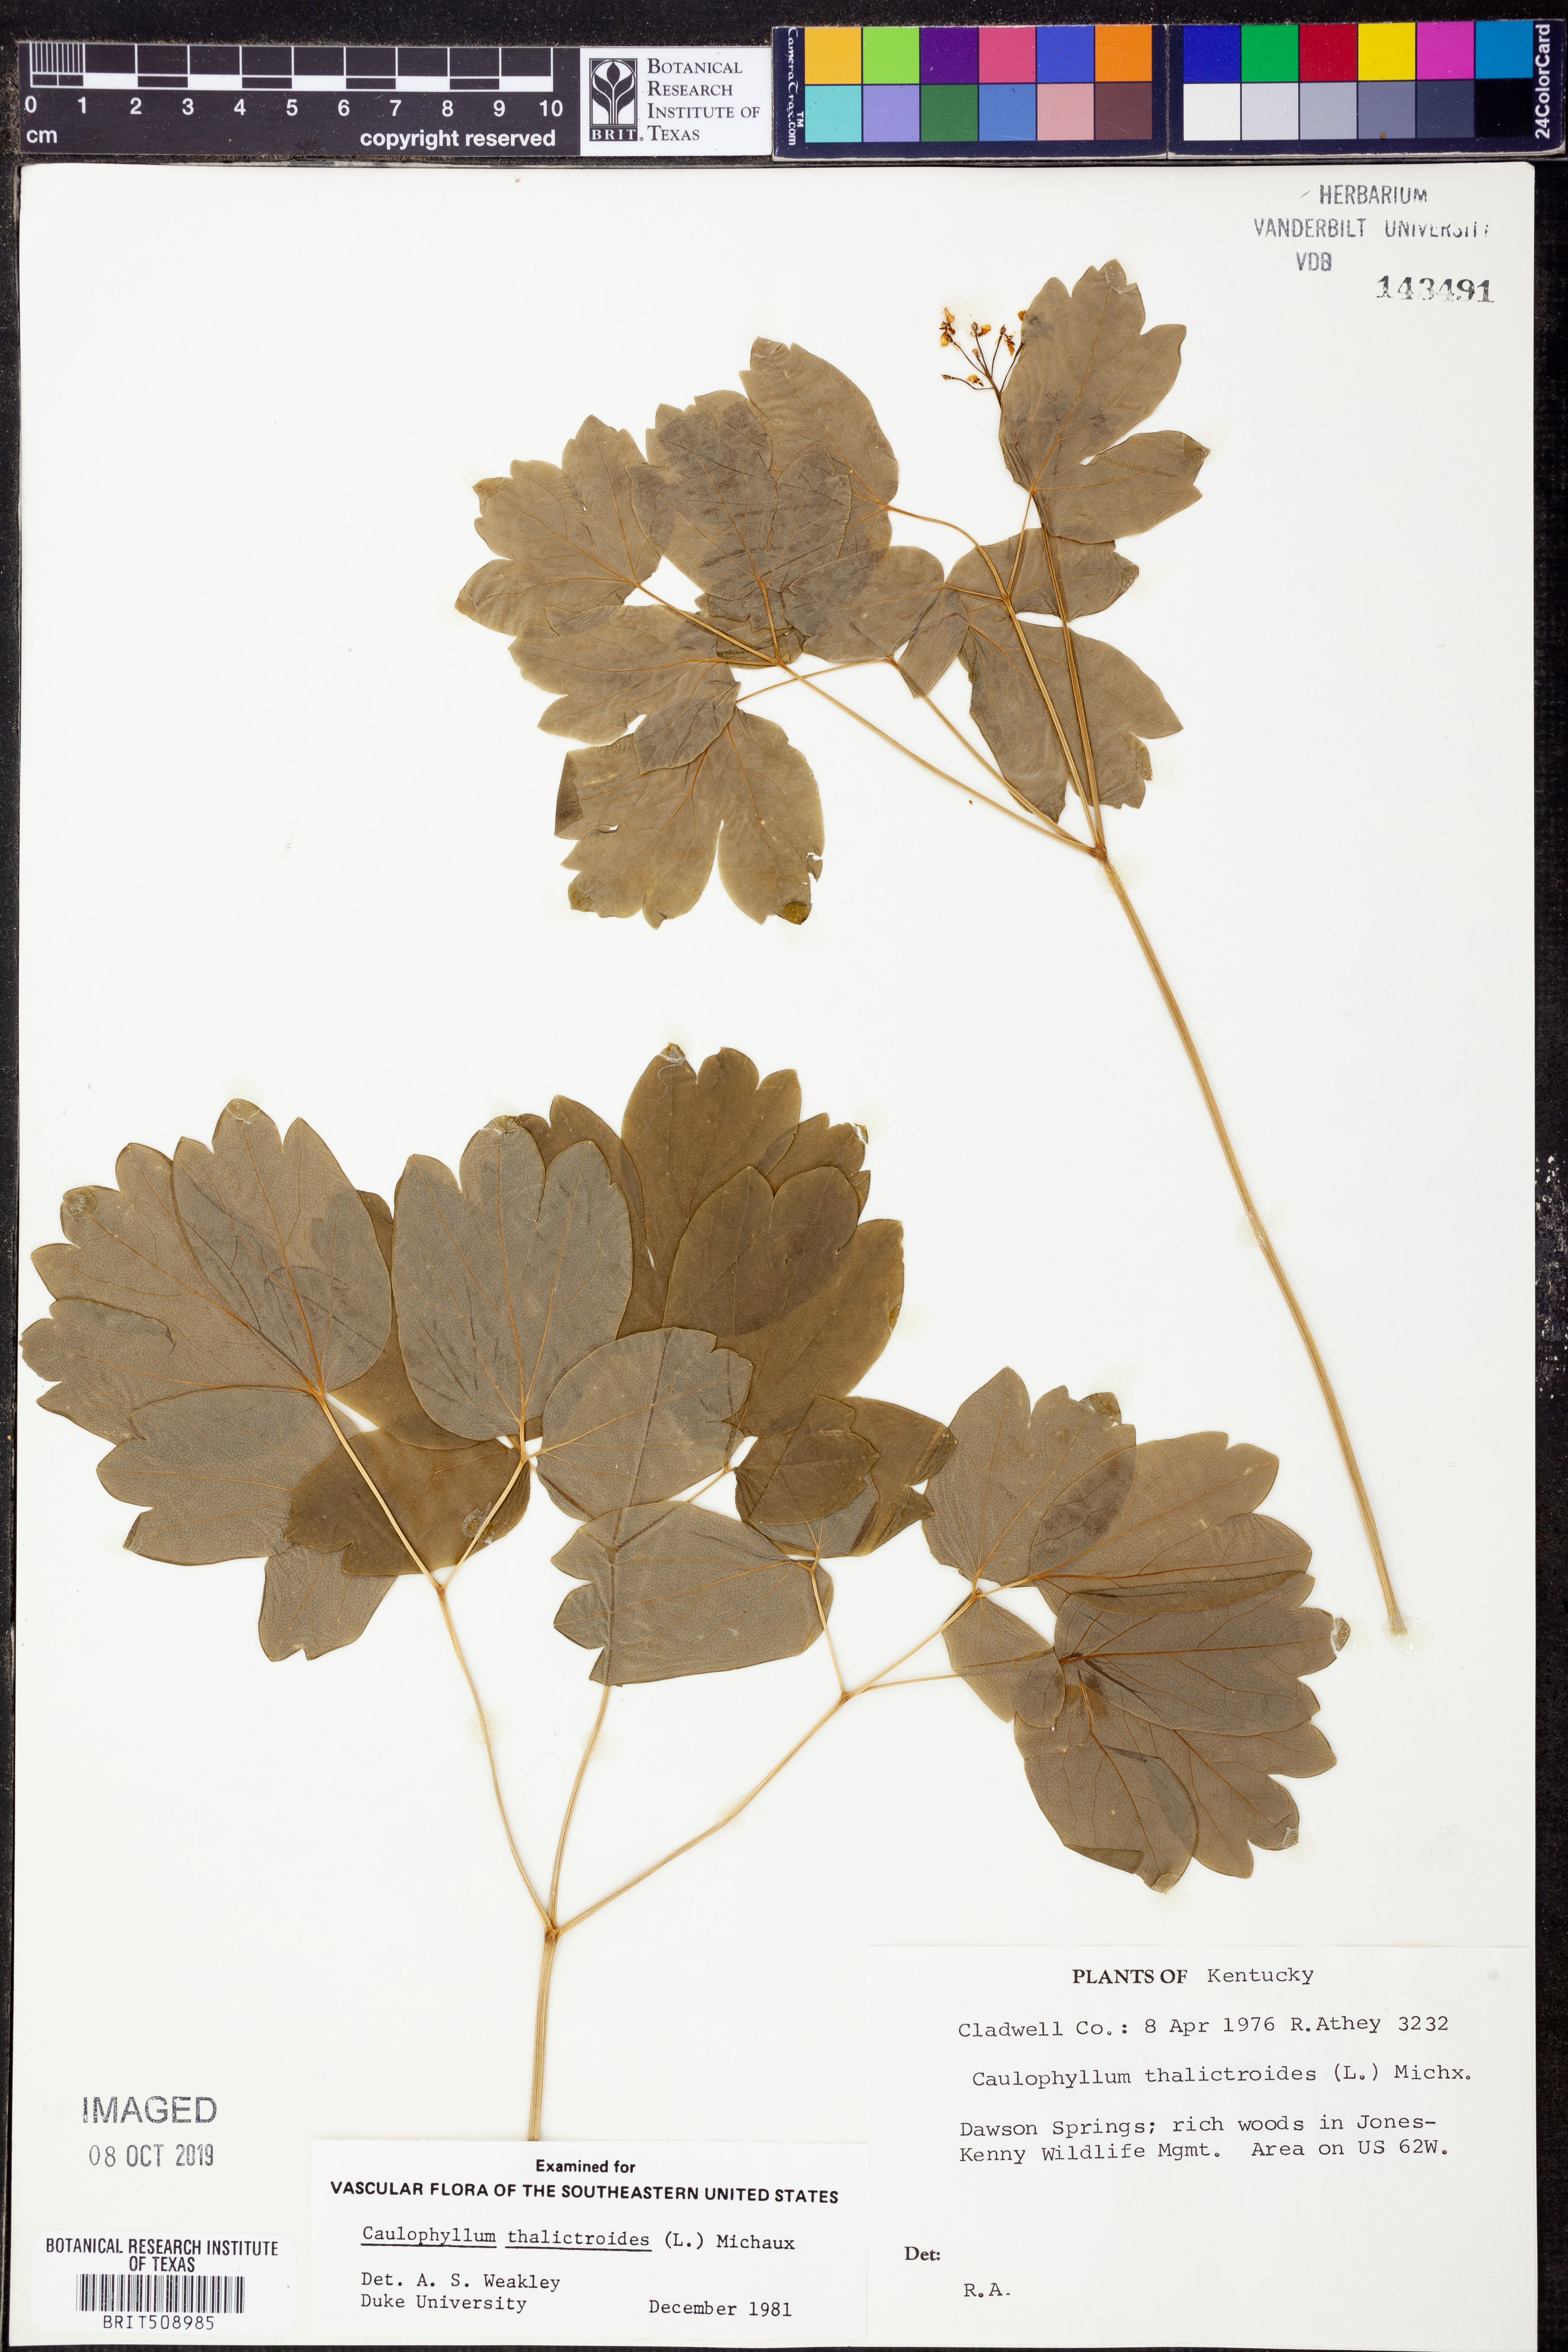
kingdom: Plantae
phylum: Tracheophyta
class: Magnoliopsida
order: Ranunculales
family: Berberidaceae
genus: Caulophyllum
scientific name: Caulophyllum thalictroides
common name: Blue cohosh
